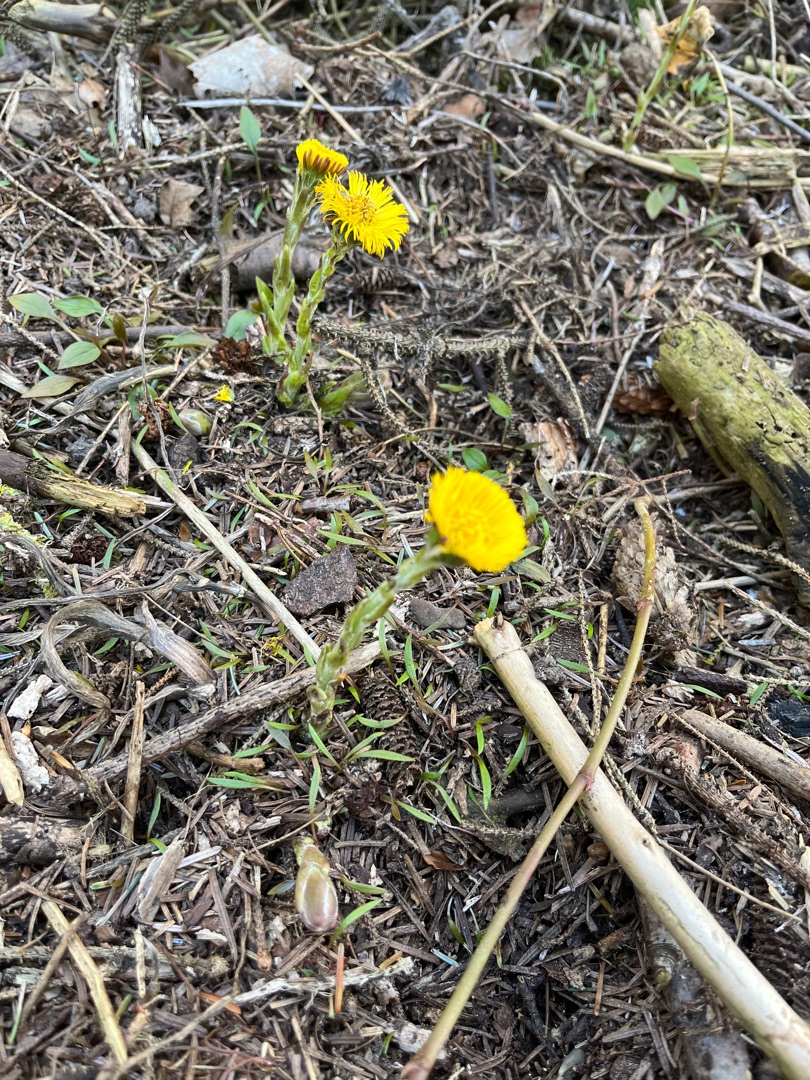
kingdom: Plantae
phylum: Tracheophyta
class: Magnoliopsida
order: Asterales
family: Asteraceae
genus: Tussilago
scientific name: Tussilago farfara
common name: Følfod
